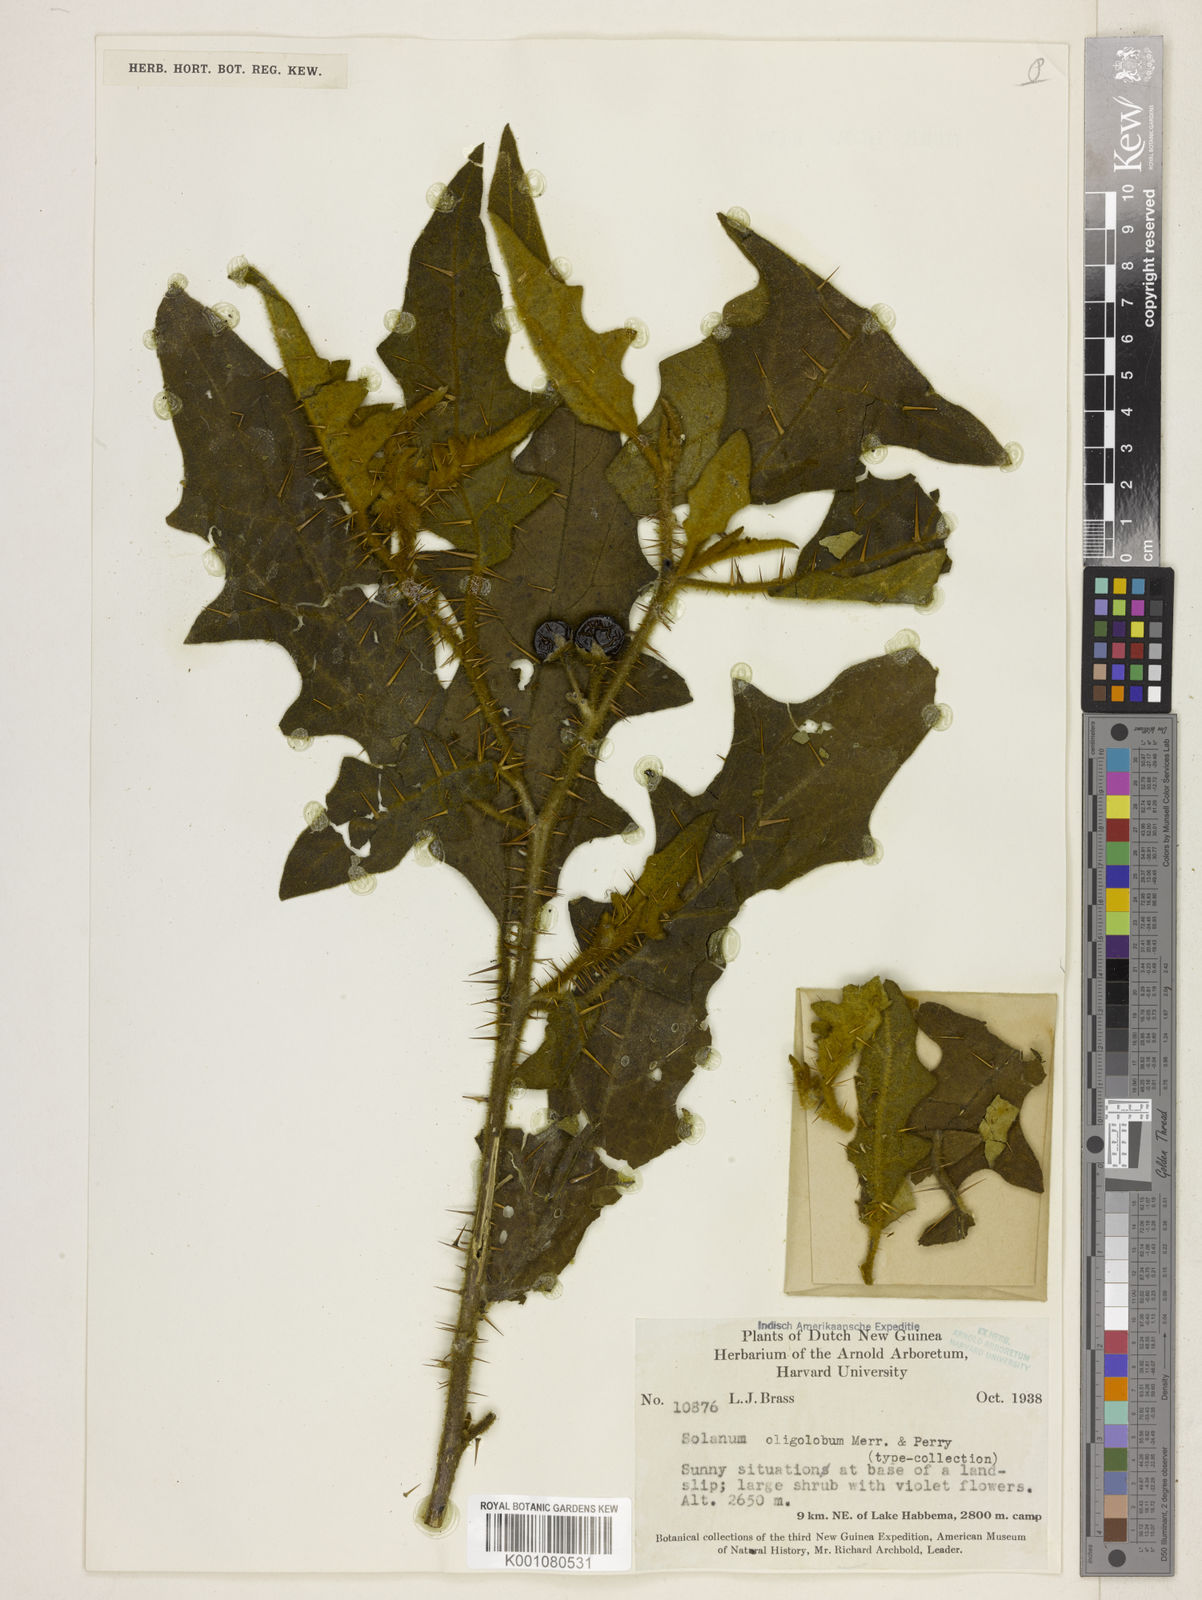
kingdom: Plantae
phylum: Tracheophyta
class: Magnoliopsida
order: Solanales
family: Solanaceae
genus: Solanum
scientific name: Solanum dammerianum
